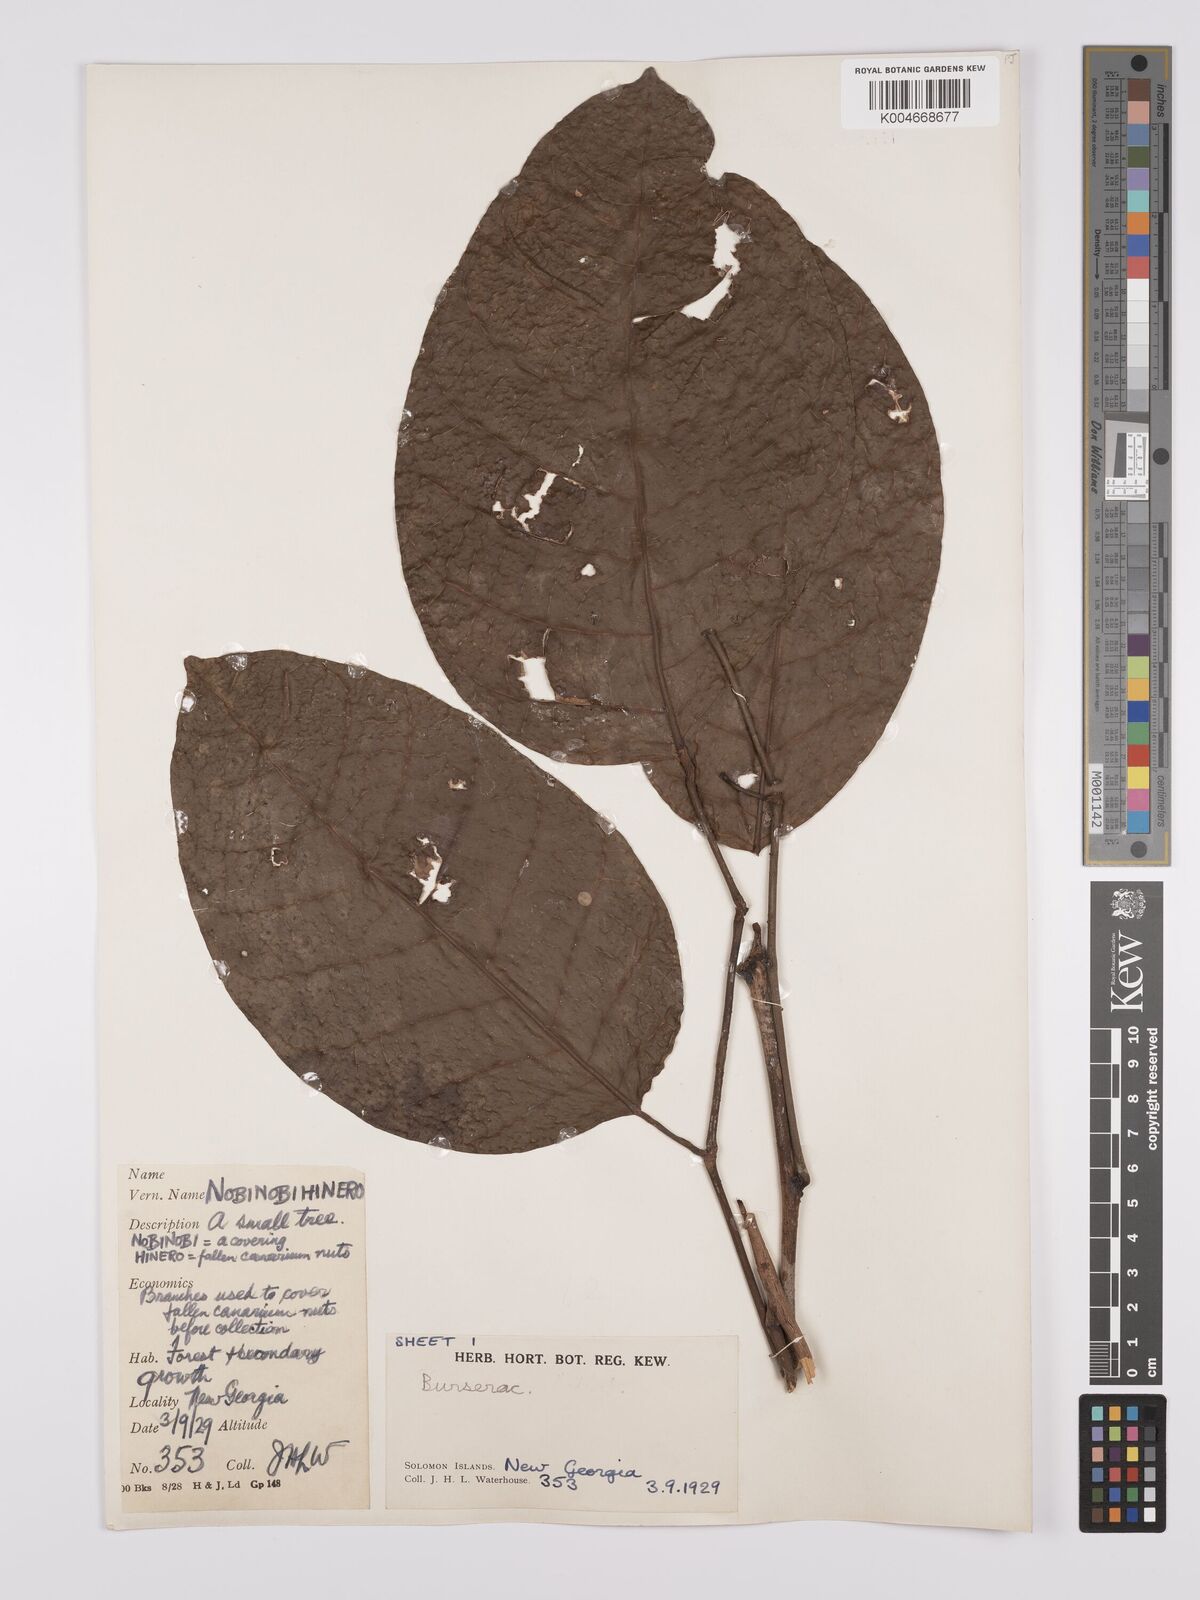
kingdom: Plantae
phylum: Tracheophyta
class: Magnoliopsida
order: Sapindales
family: Burseraceae
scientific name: Burseraceae
